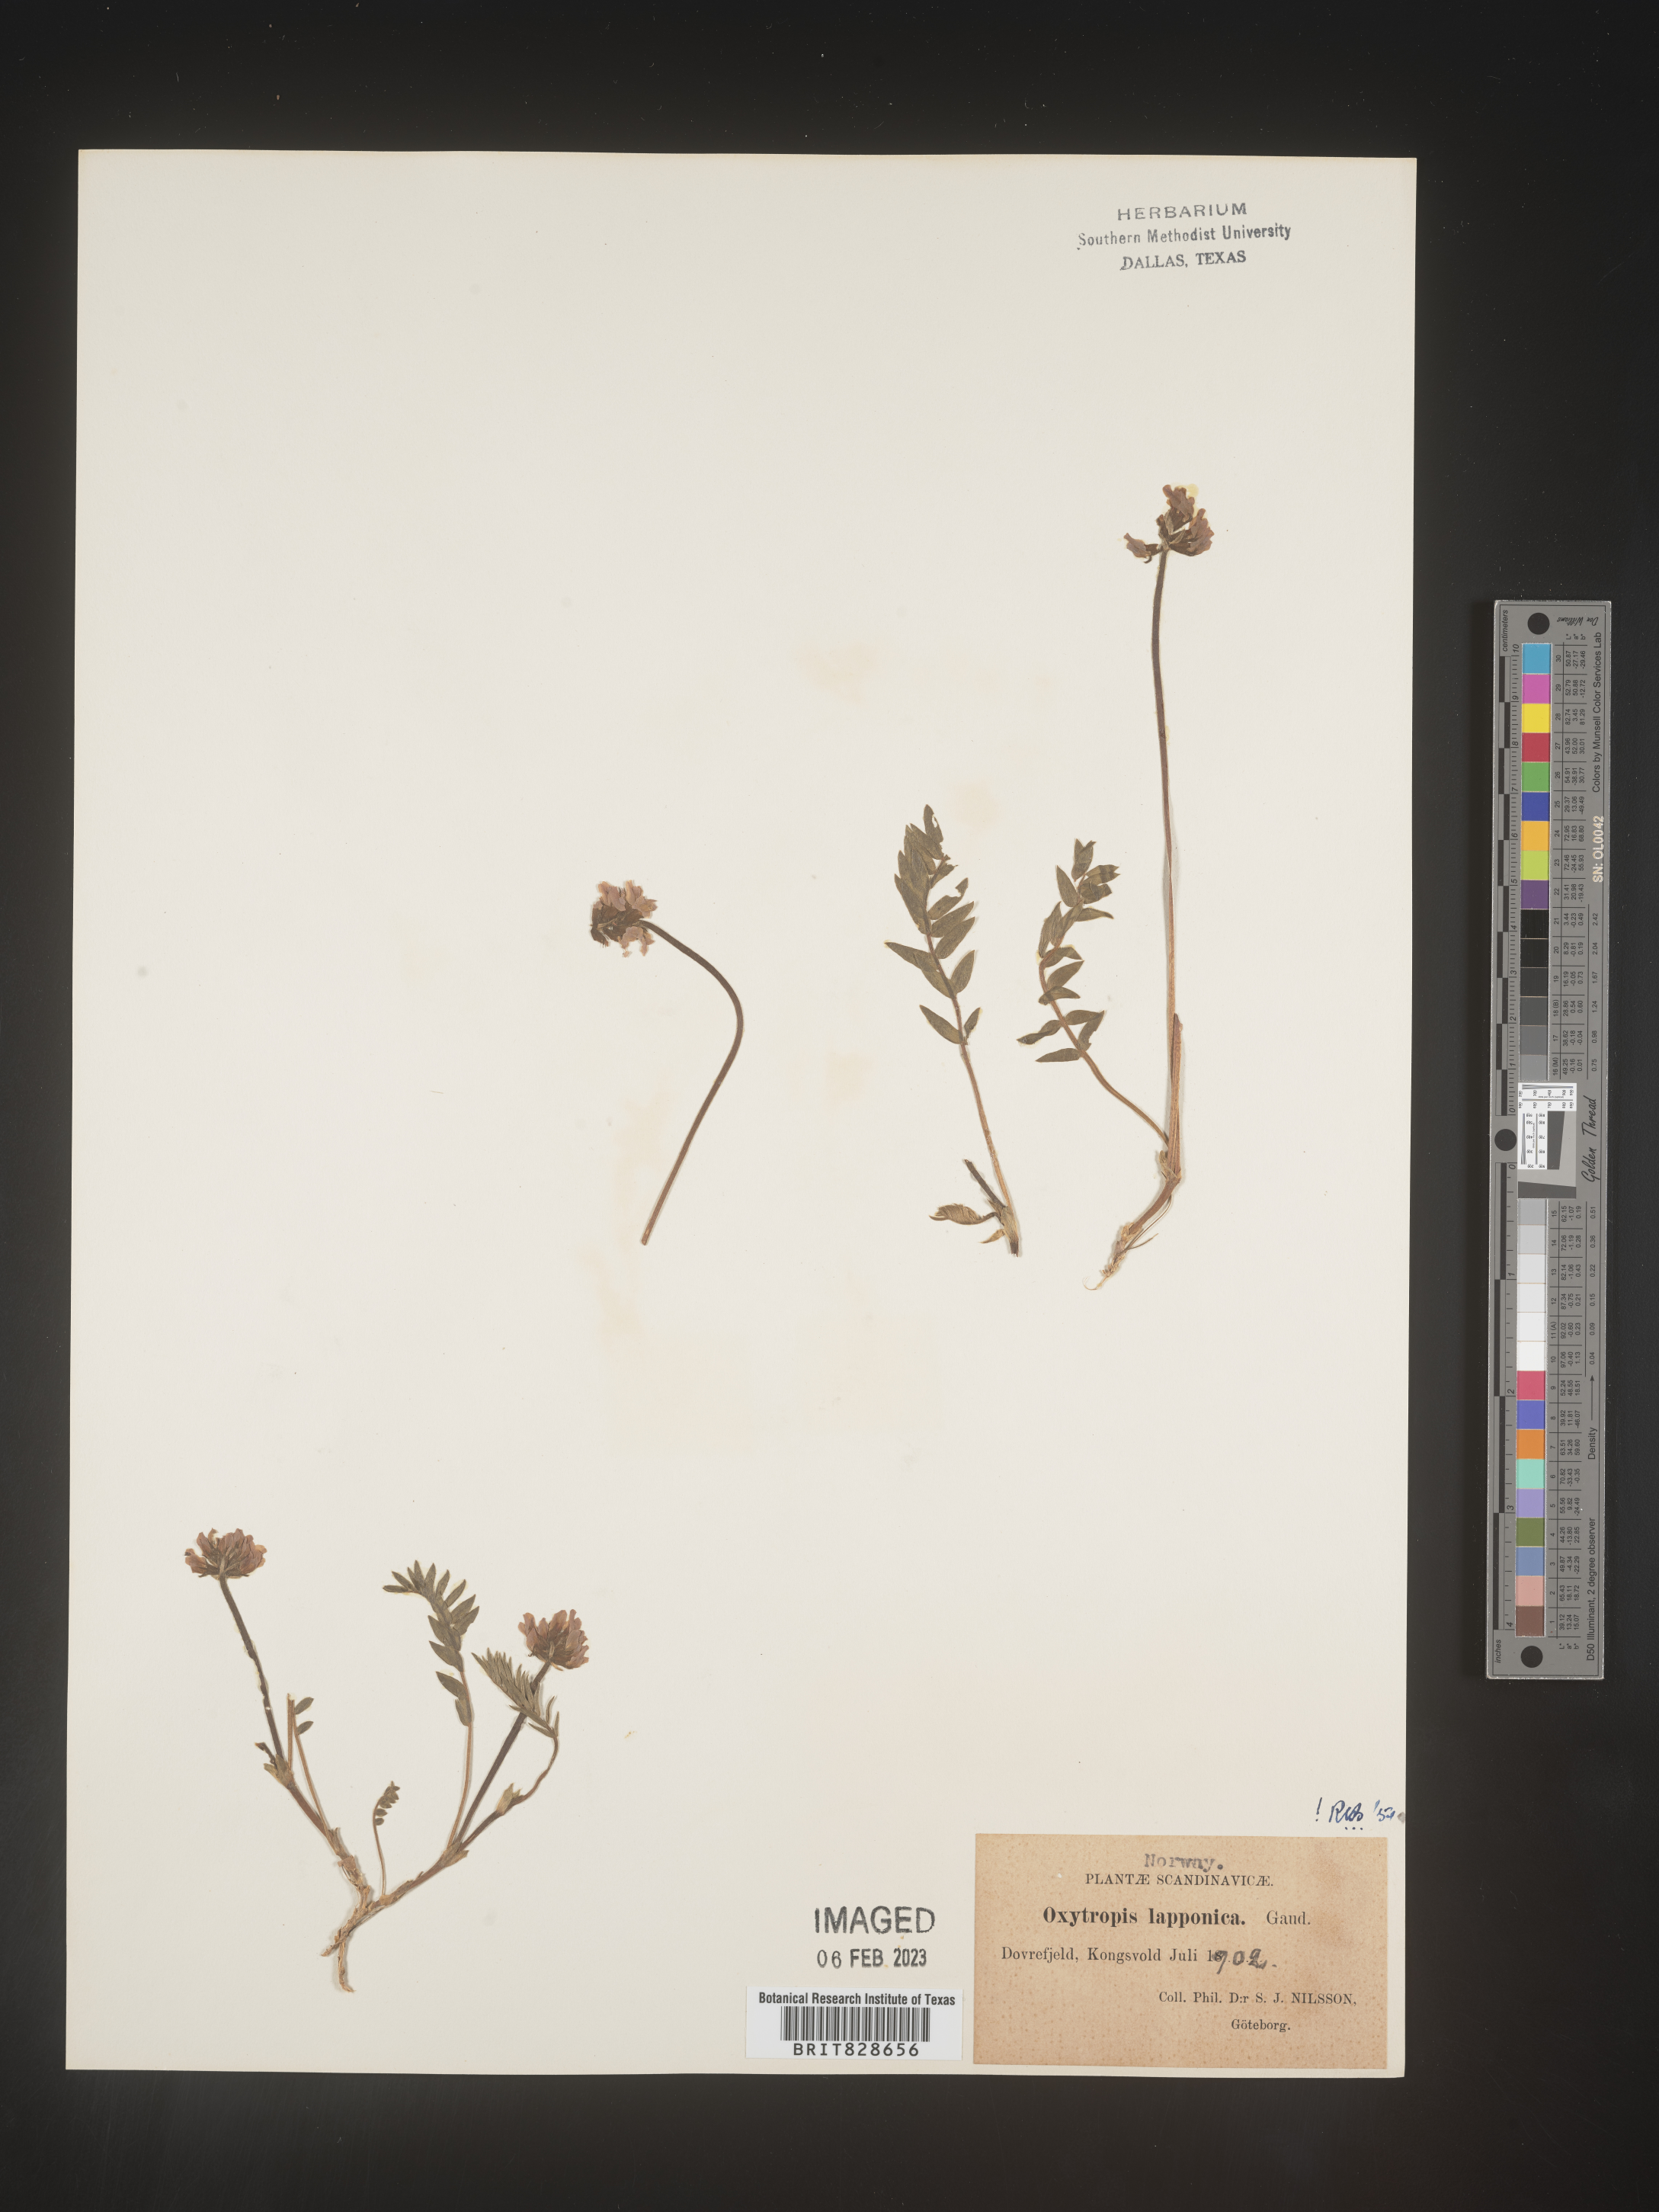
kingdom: Plantae
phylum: Tracheophyta
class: Magnoliopsida
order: Fabales
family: Fabaceae
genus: Oxytropis
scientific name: Oxytropis
